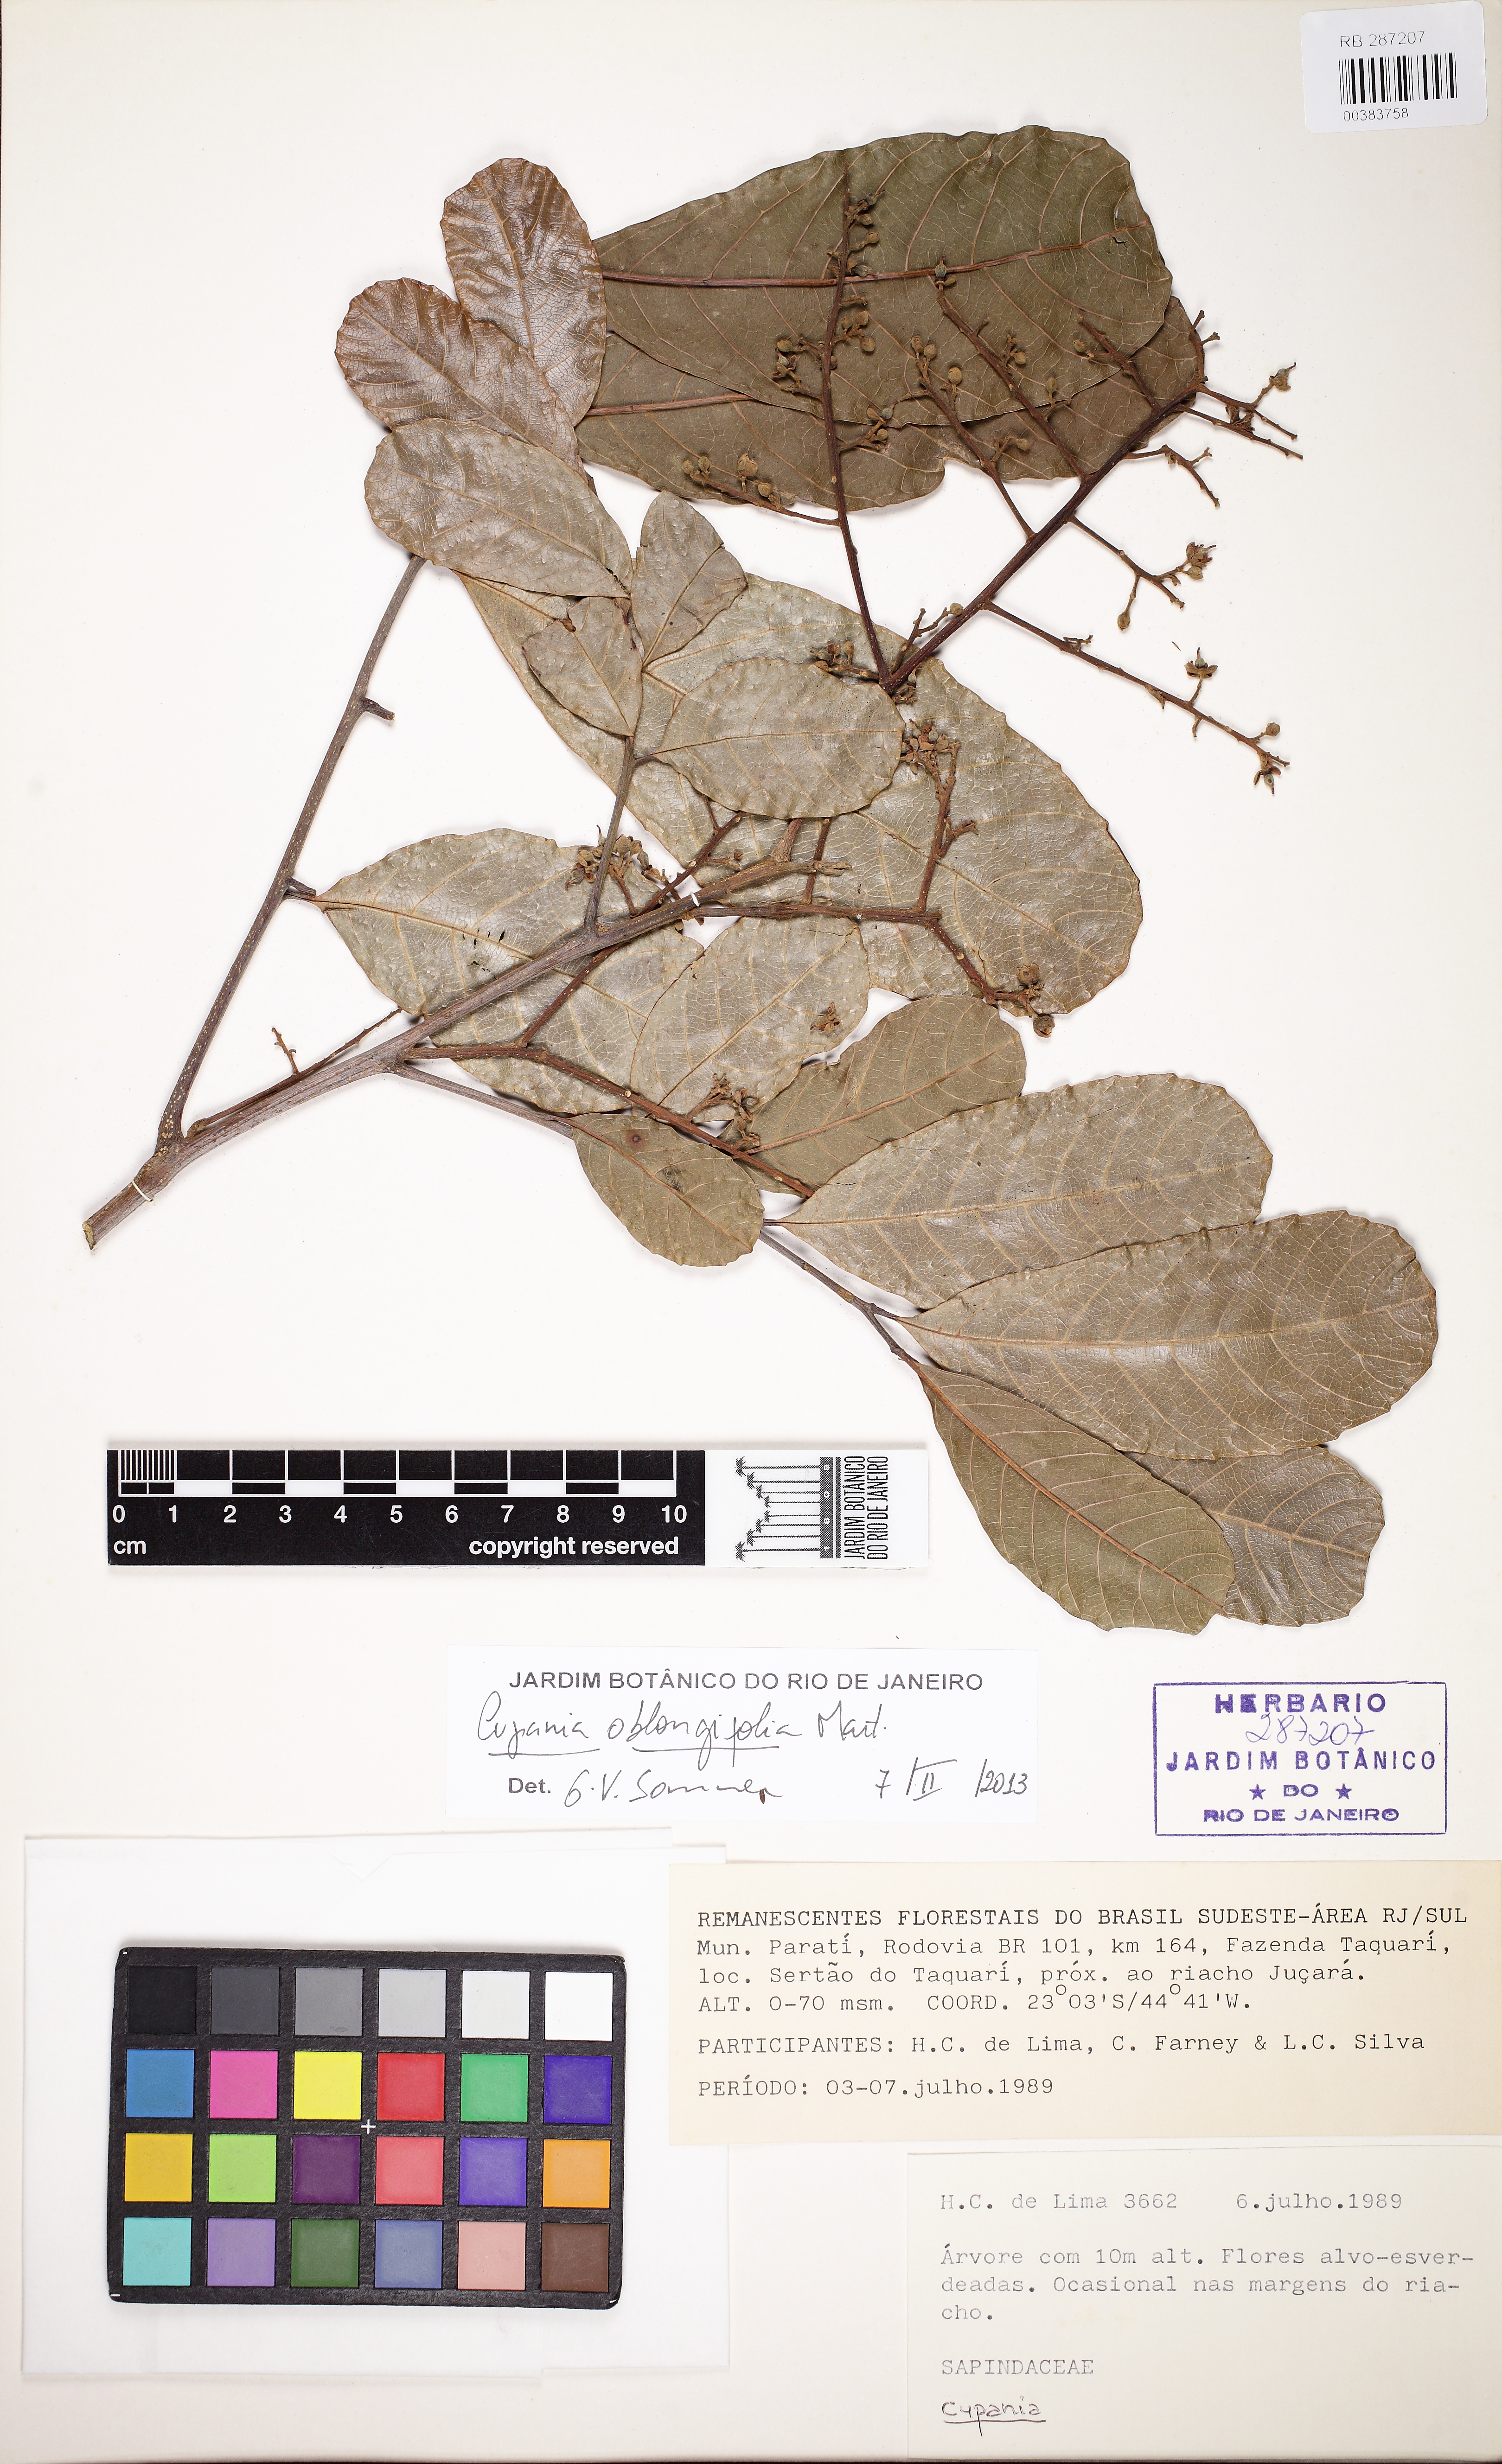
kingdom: Plantae
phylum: Tracheophyta
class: Magnoliopsida
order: Sapindales
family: Sapindaceae
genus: Cupania
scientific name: Cupania oblongifolia
